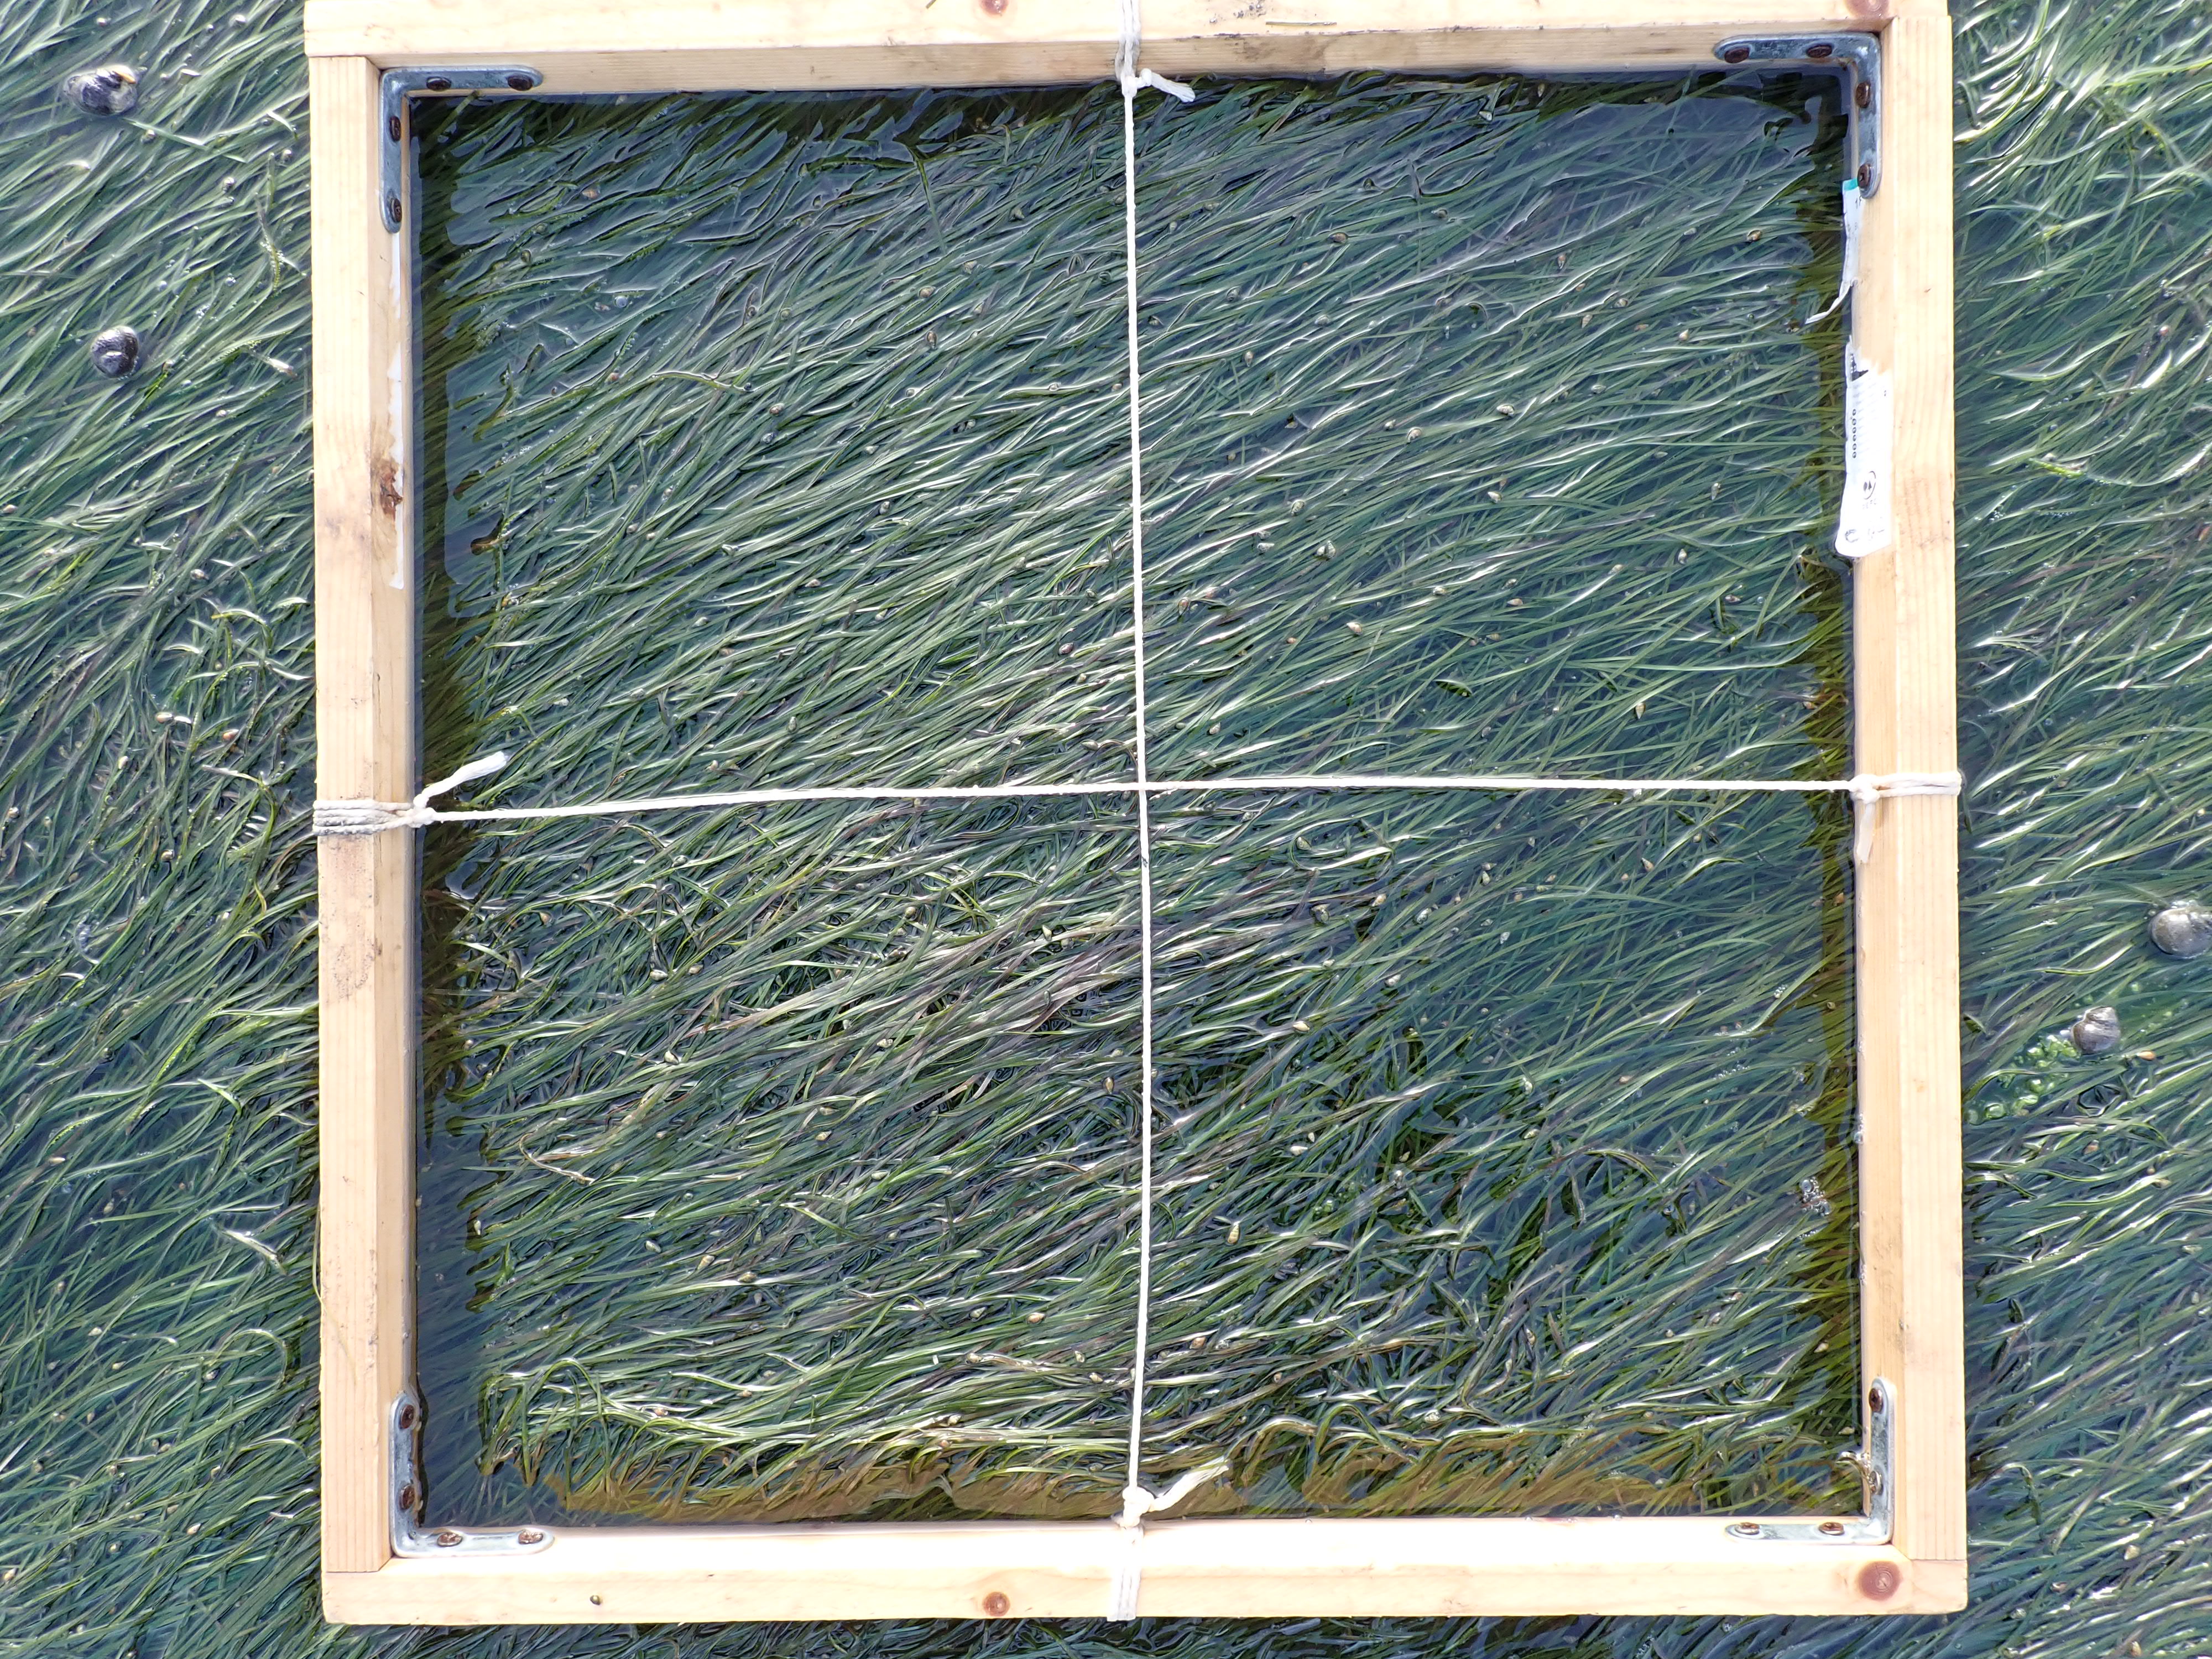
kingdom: Plantae
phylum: Tracheophyta
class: Liliopsida
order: Alismatales
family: Zosteraceae
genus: Zostera
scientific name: Zostera noltii
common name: Dwarf eelgrass
